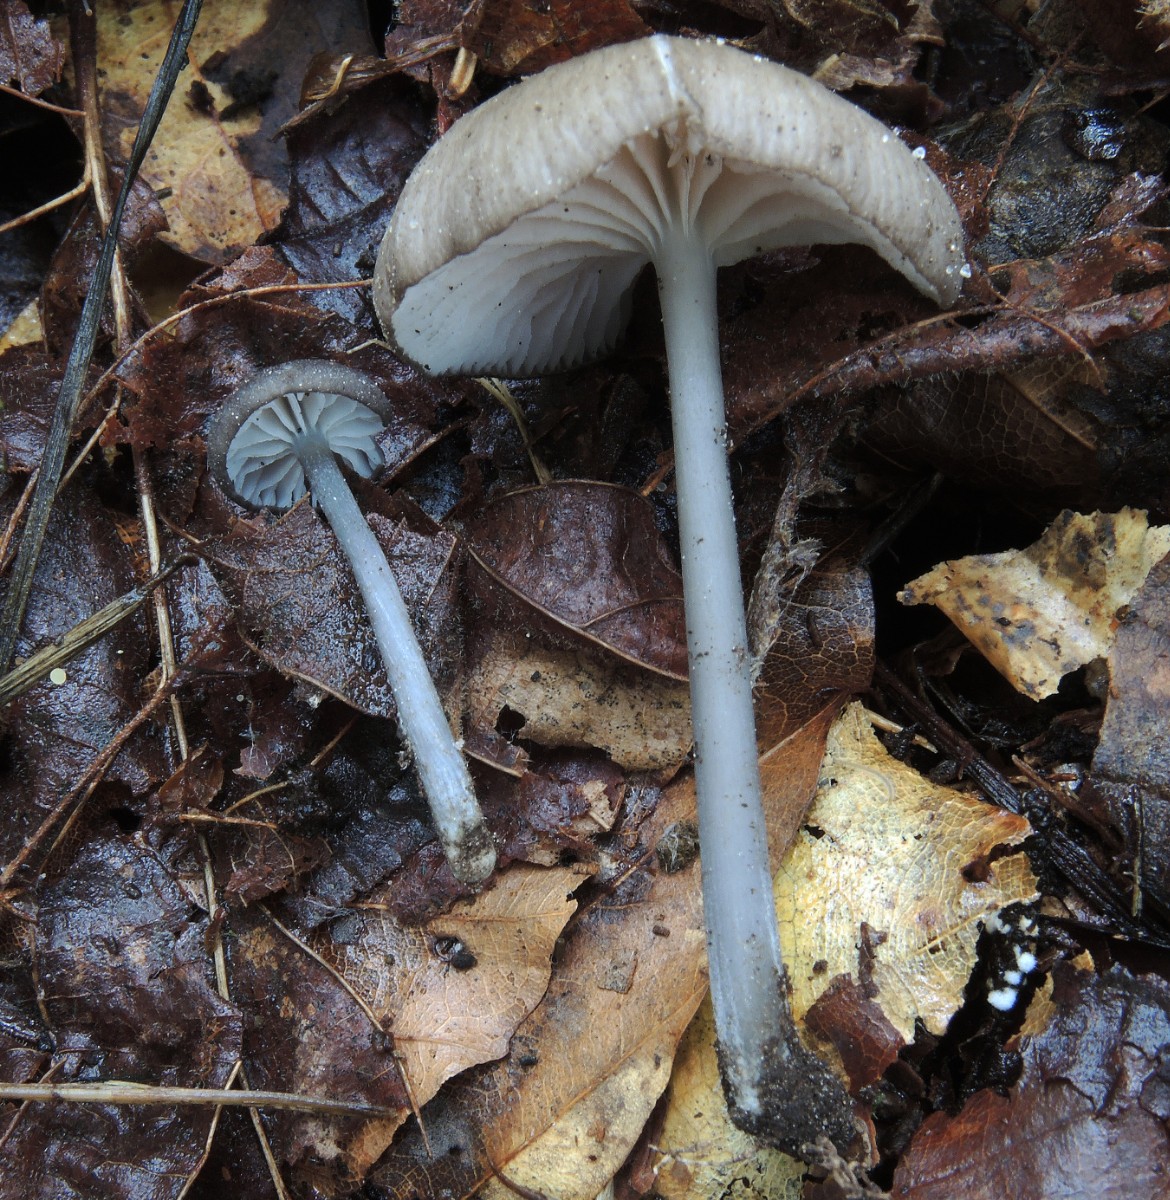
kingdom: Fungi
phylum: Basidiomycota
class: Agaricomycetes
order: Agaricales
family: Entolomataceae
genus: Entoloma
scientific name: Entoloma allospermum
